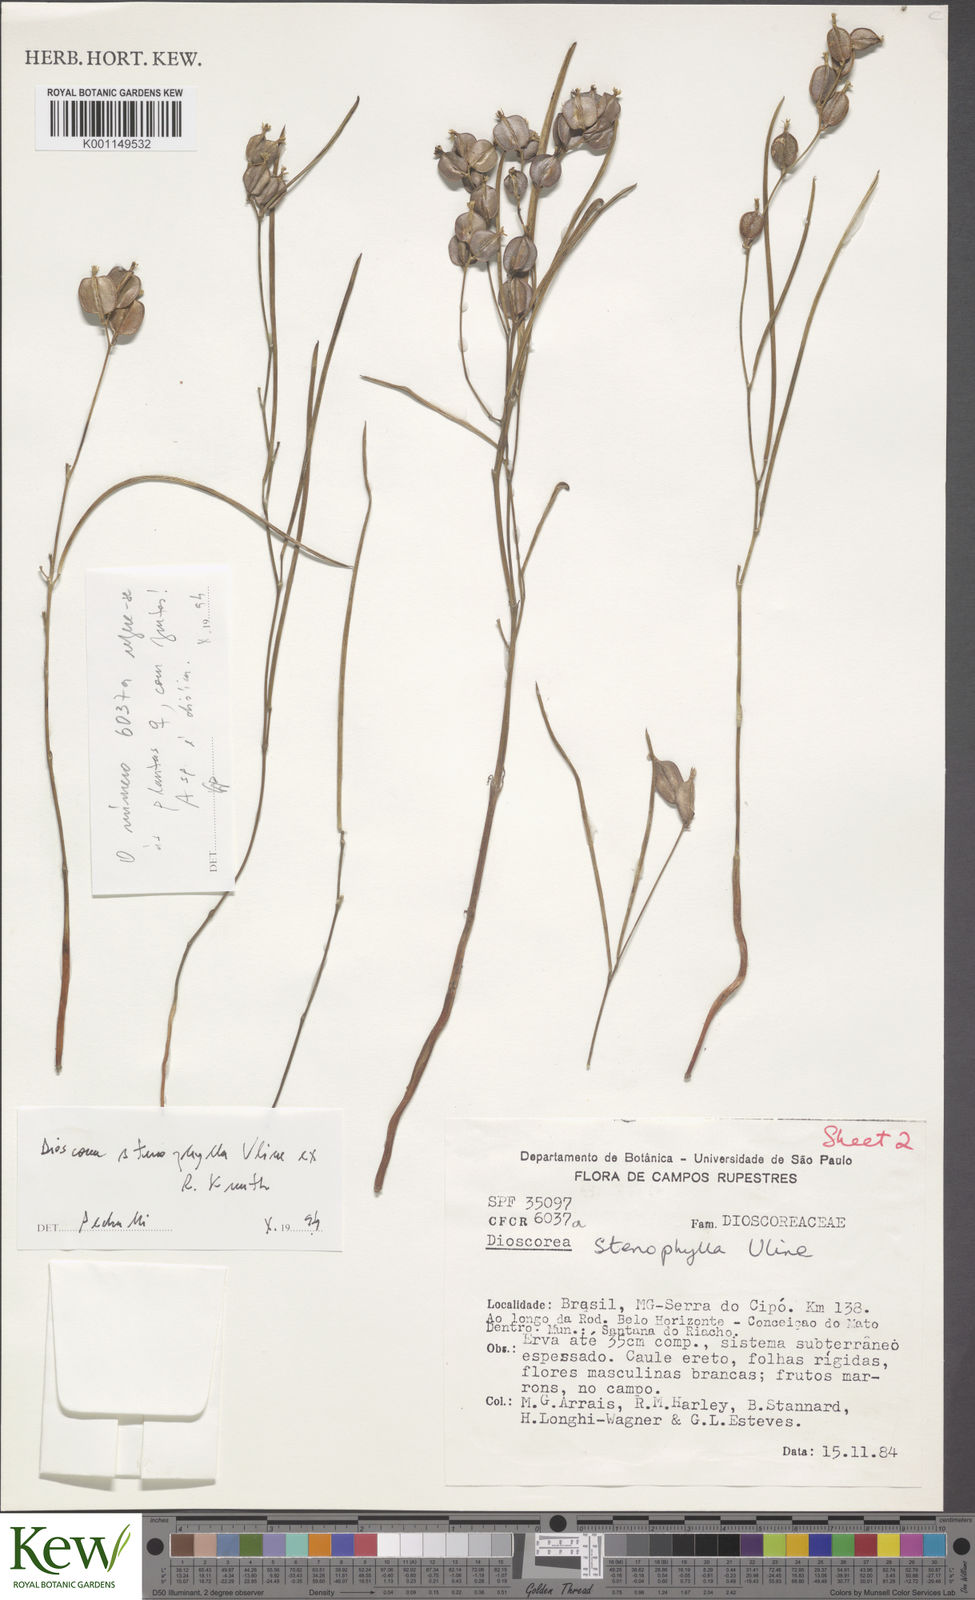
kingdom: Plantae
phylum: Tracheophyta
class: Liliopsida
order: Dioscoreales
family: Dioscoreaceae
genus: Dioscorea
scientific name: Dioscorea anomala
